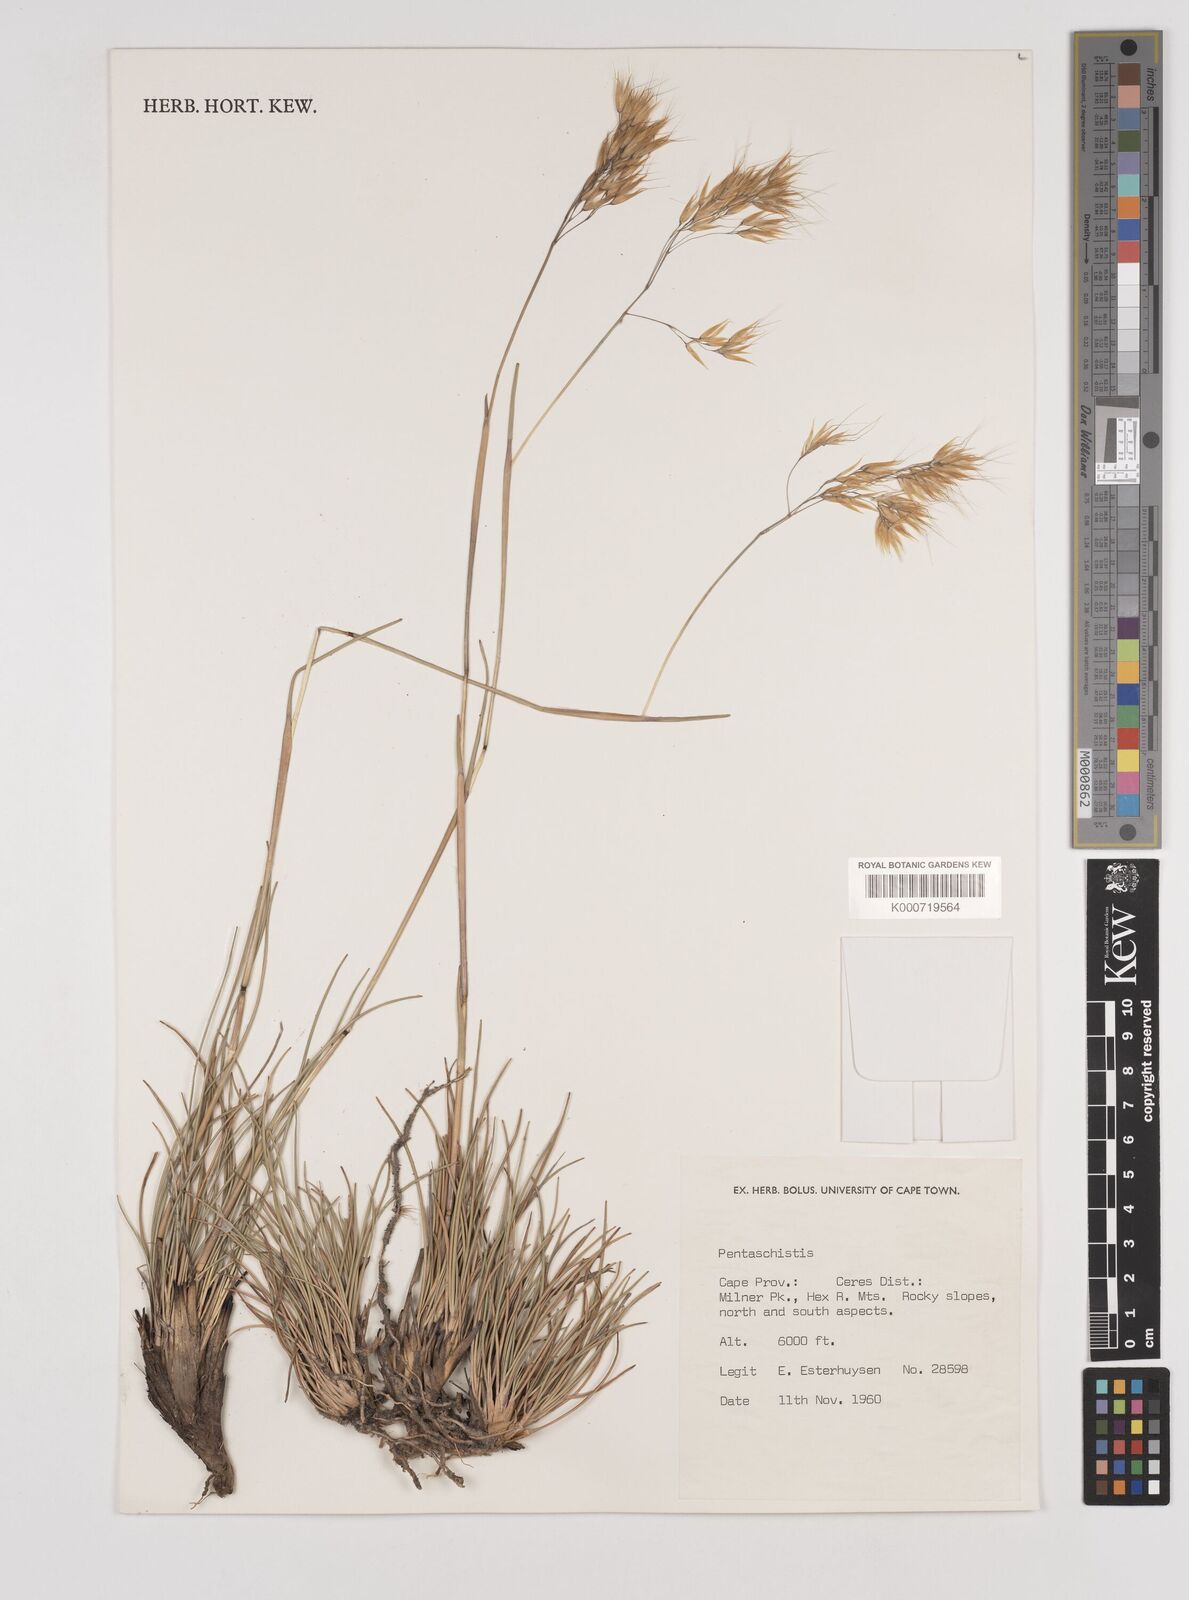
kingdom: Plantae
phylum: Tracheophyta
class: Liliopsida
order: Poales
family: Poaceae
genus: Pentameris
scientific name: Pentameris pyrophila
